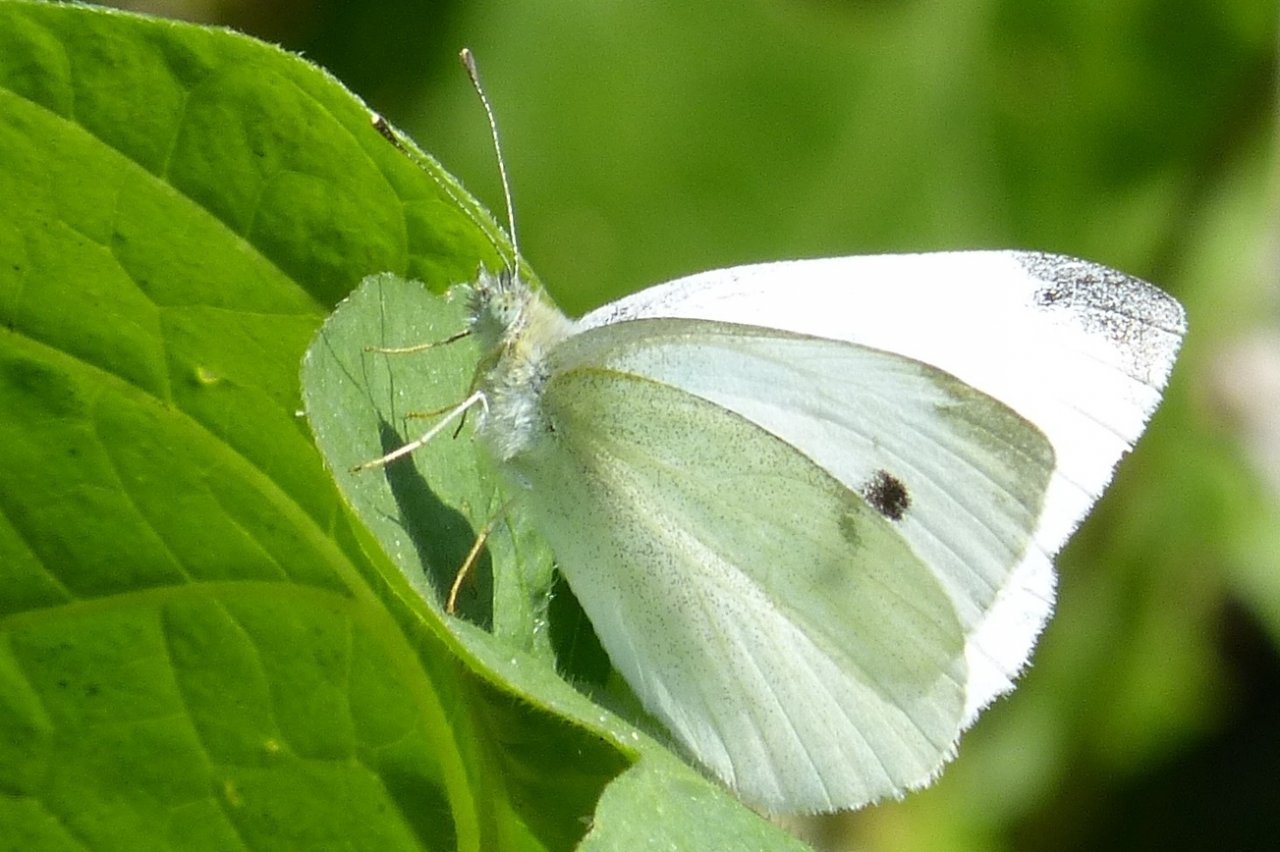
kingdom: Animalia
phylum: Arthropoda
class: Insecta
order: Lepidoptera
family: Pieridae
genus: Pieris
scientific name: Pieris rapae
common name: Cabbage White
